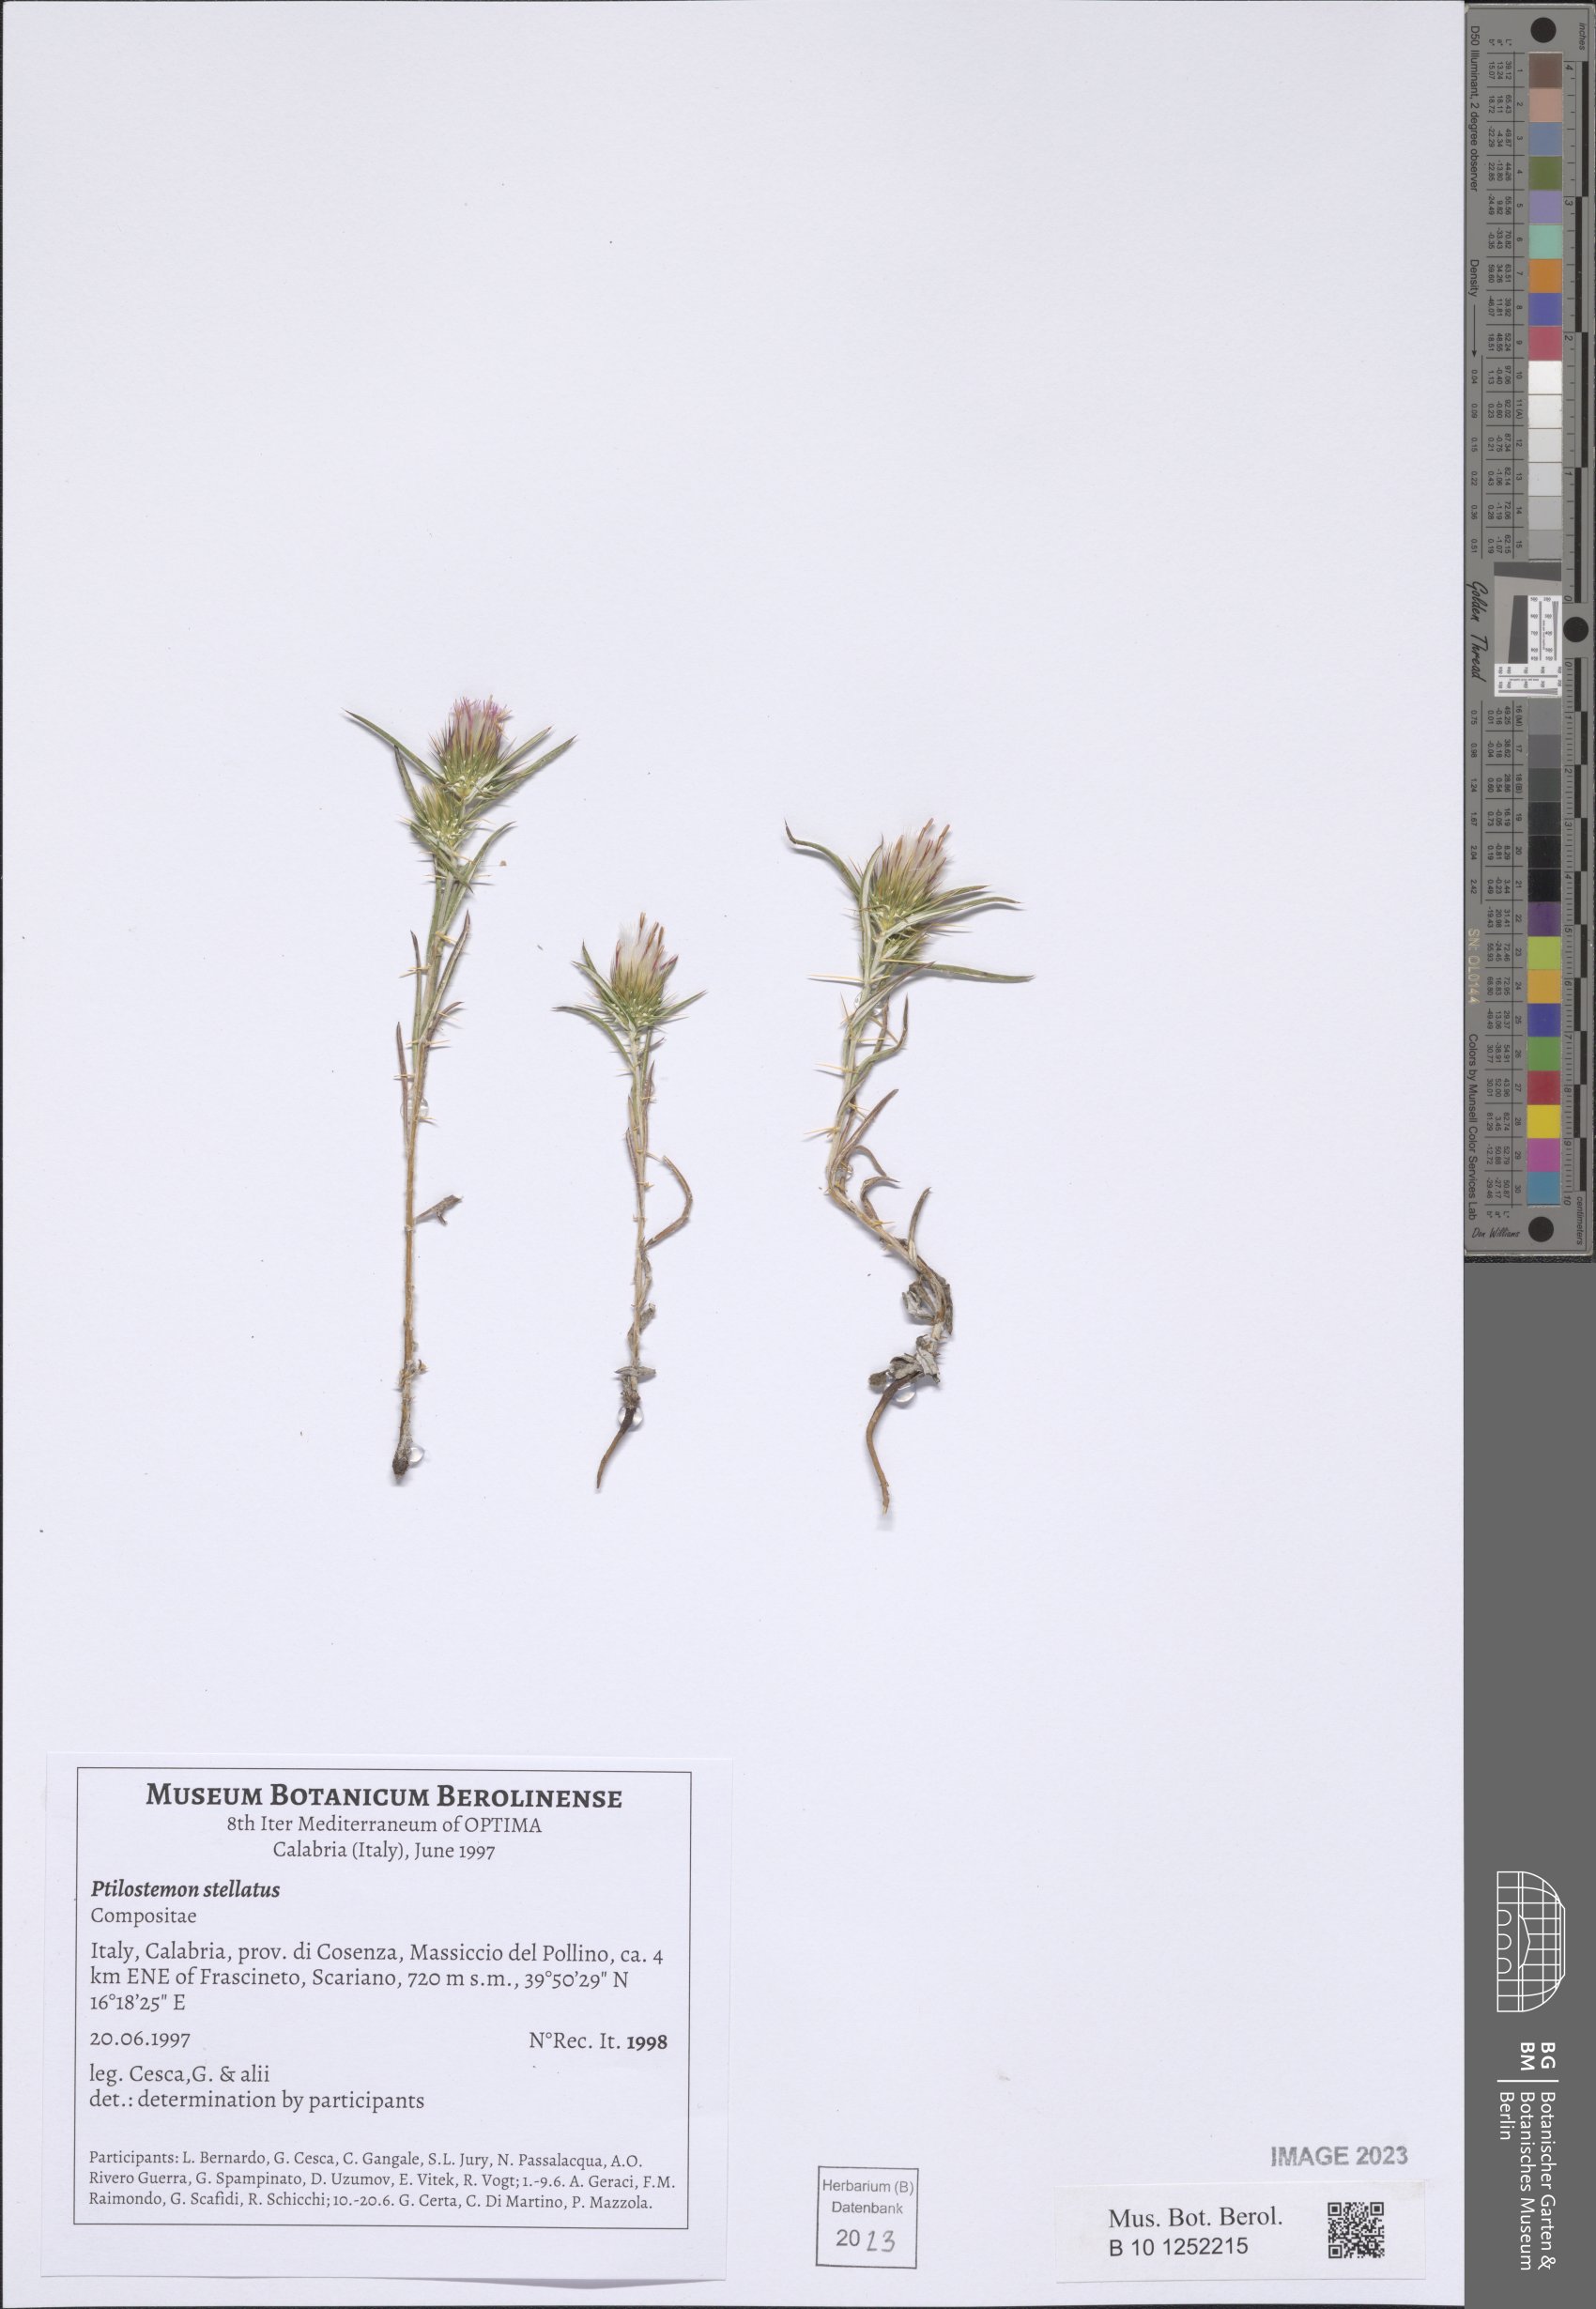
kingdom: Plantae
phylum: Tracheophyta
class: Magnoliopsida
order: Asterales
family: Asteraceae
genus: Ptilostemon
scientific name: Ptilostemon stellatus
